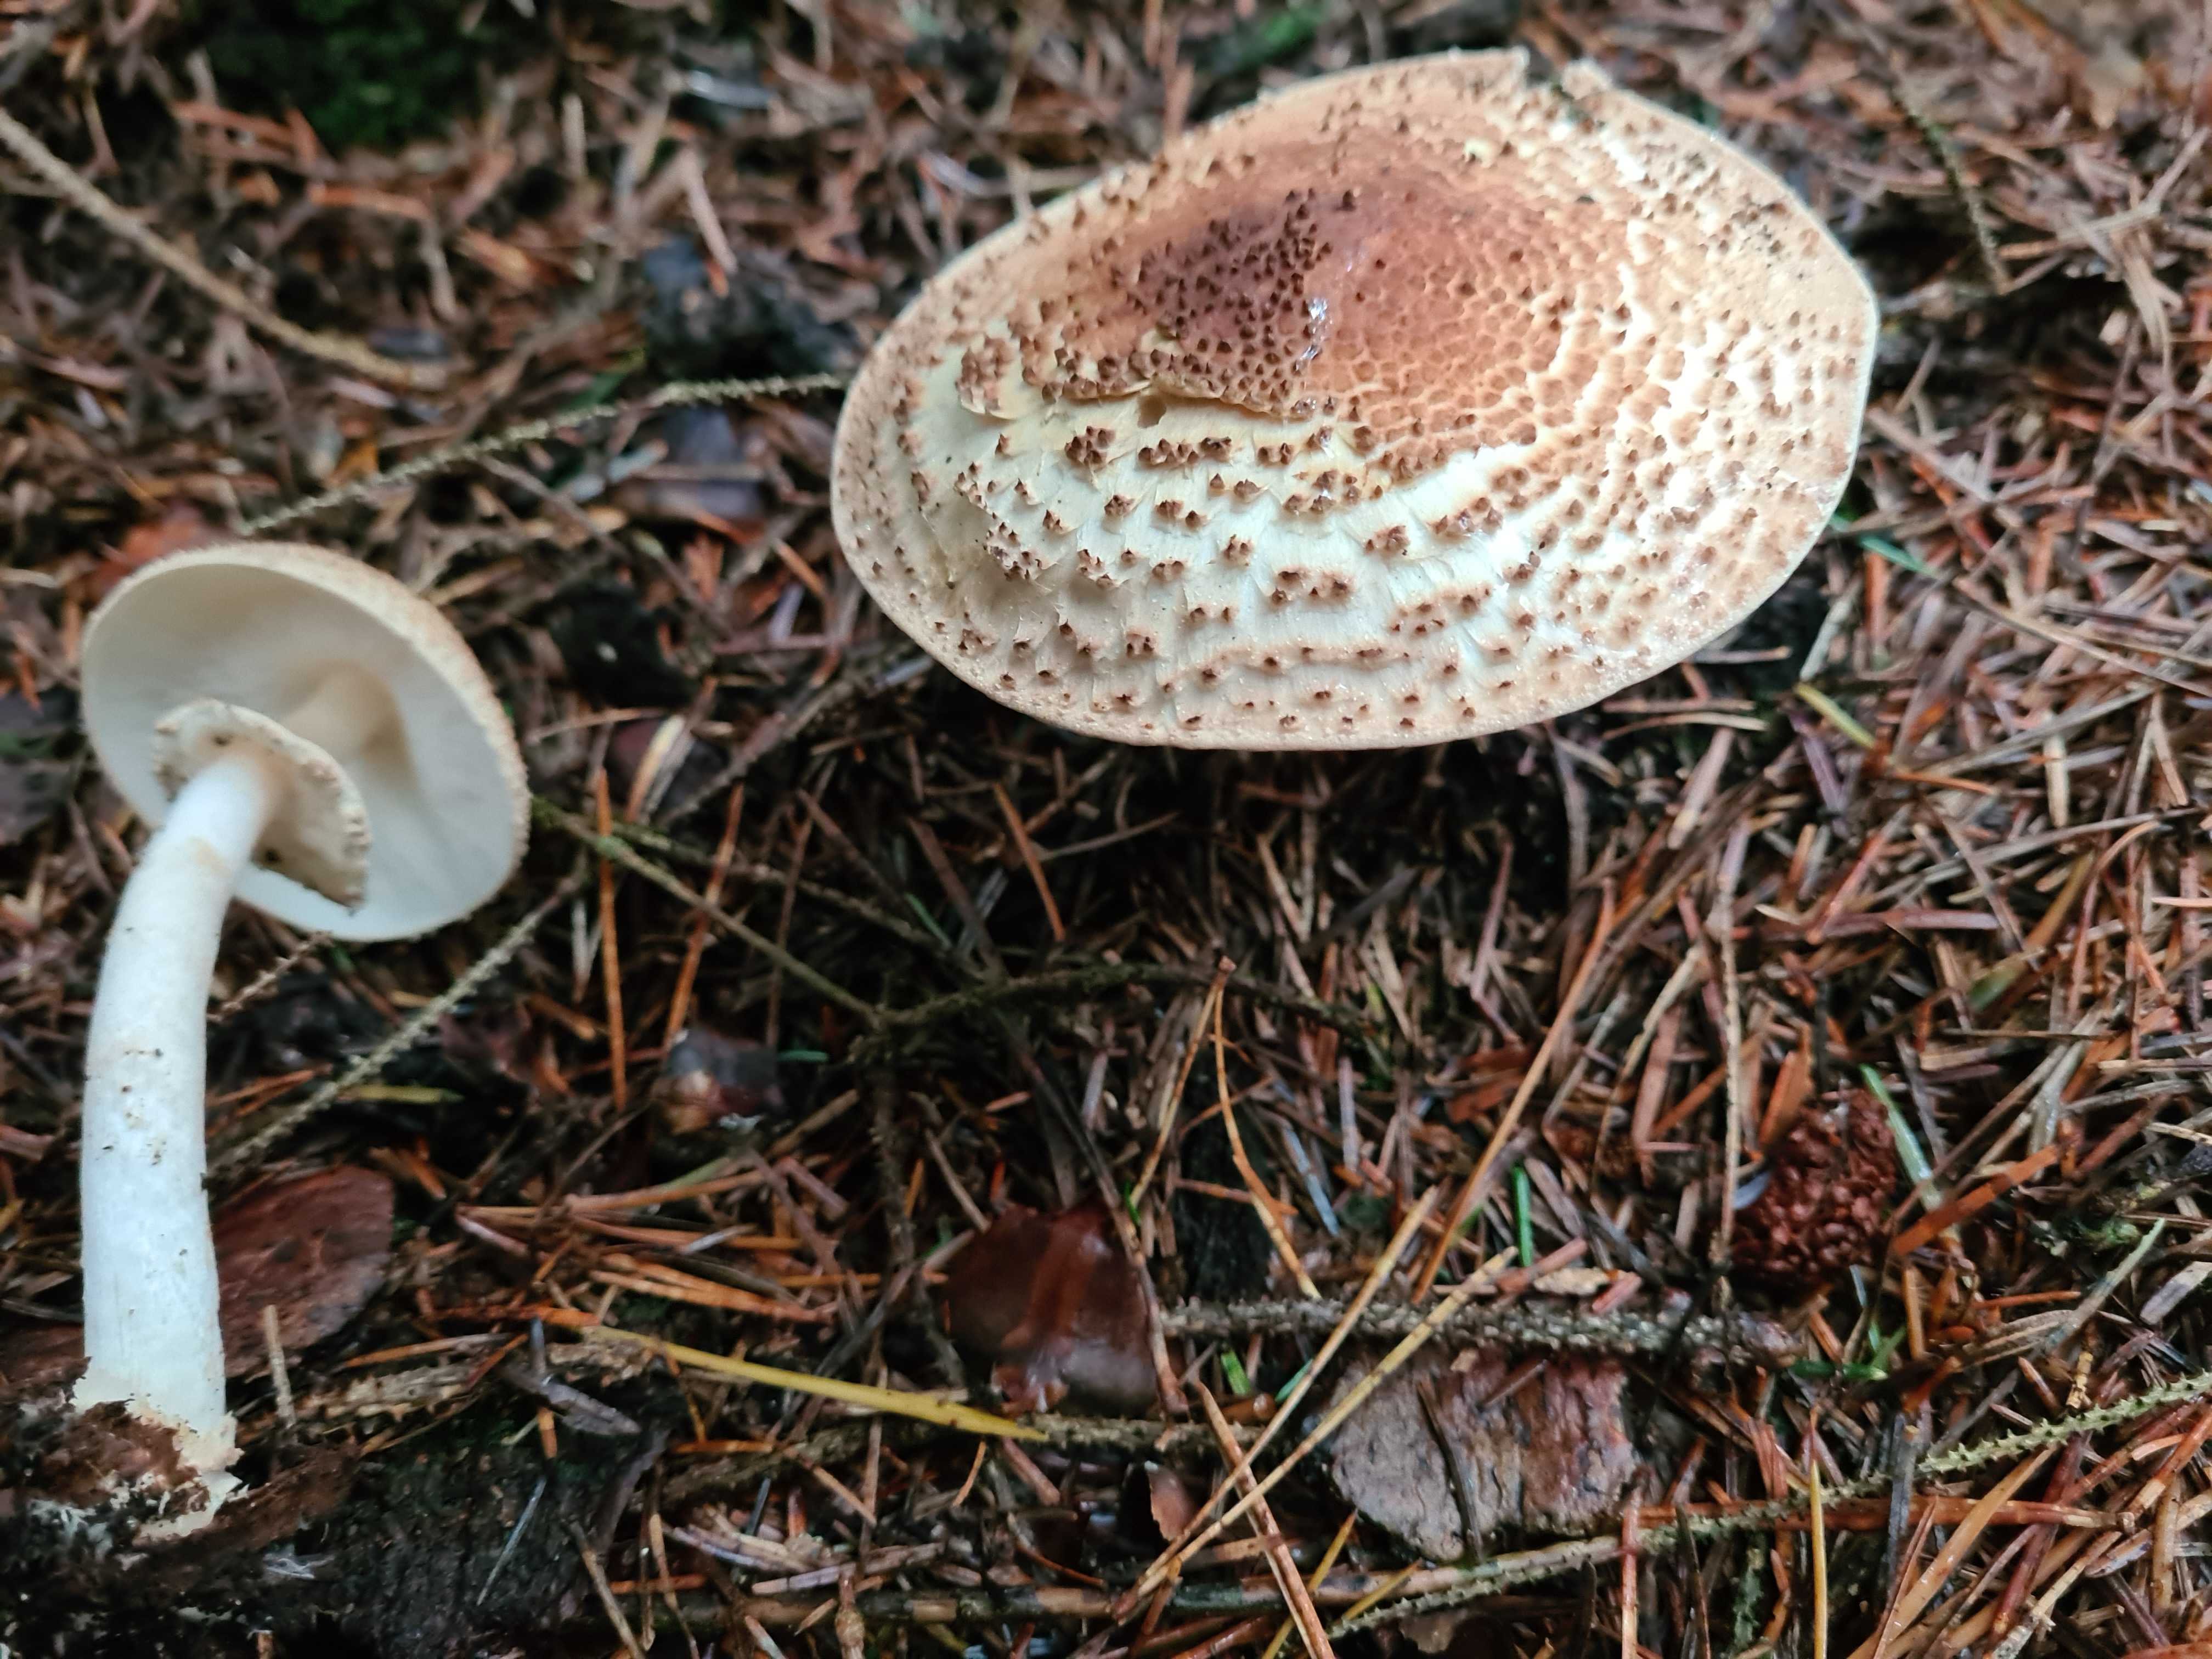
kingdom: Fungi
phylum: Basidiomycota
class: Agaricomycetes
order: Agaricales
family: Agaricaceae
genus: Echinoderma
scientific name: Echinoderma asperum
